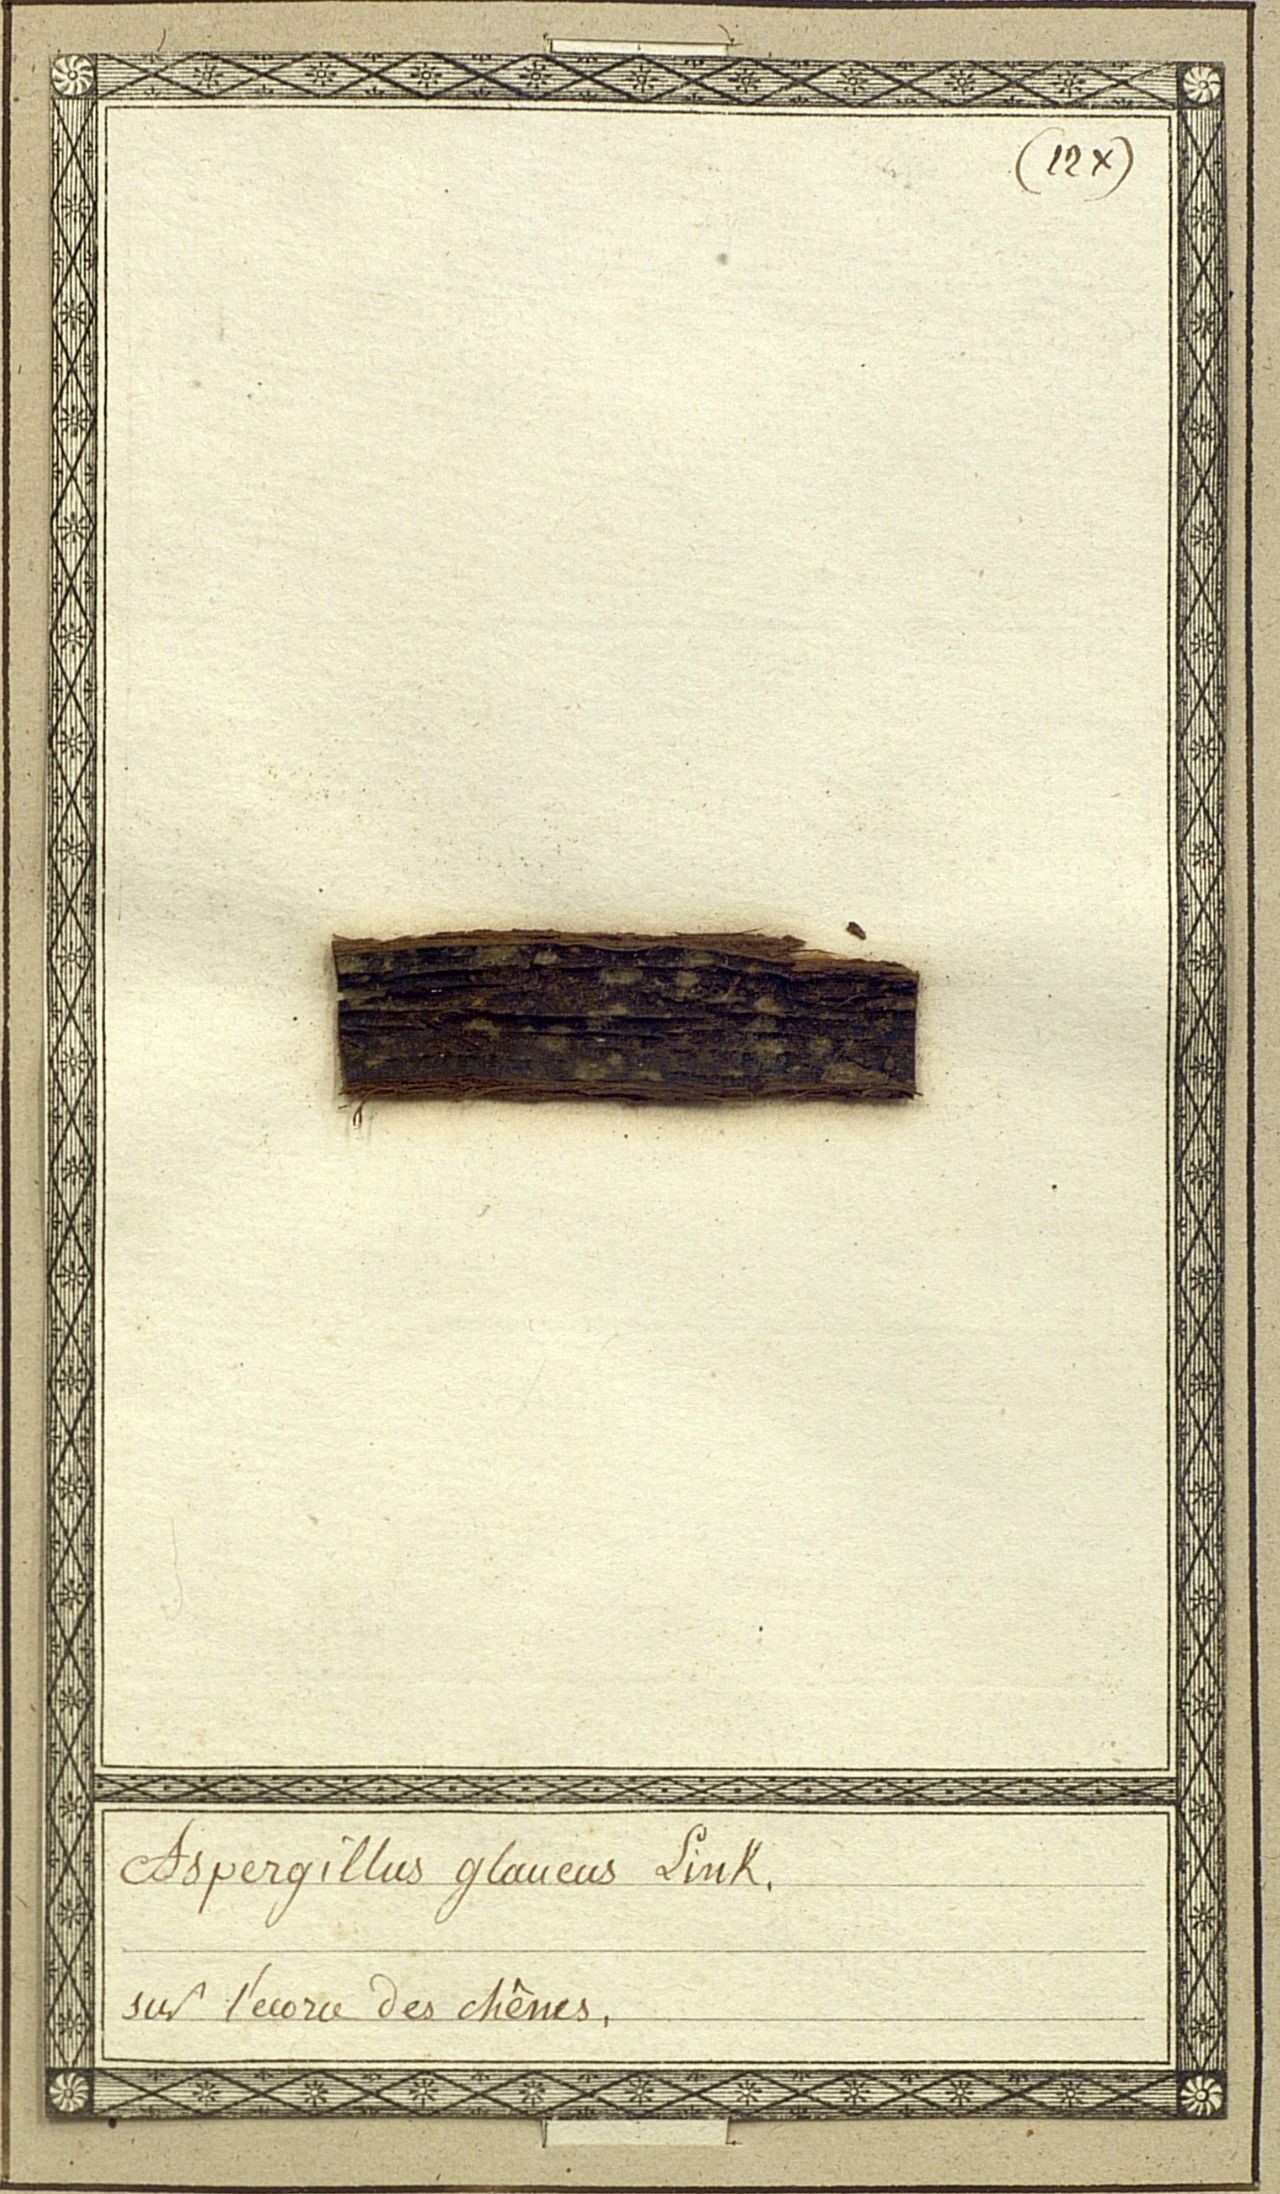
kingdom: Fungi
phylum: Ascomycota
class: Eurotiomycetes
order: Eurotiales
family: Aspergillaceae
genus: Aspergillus
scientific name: Aspergillus glaucus
